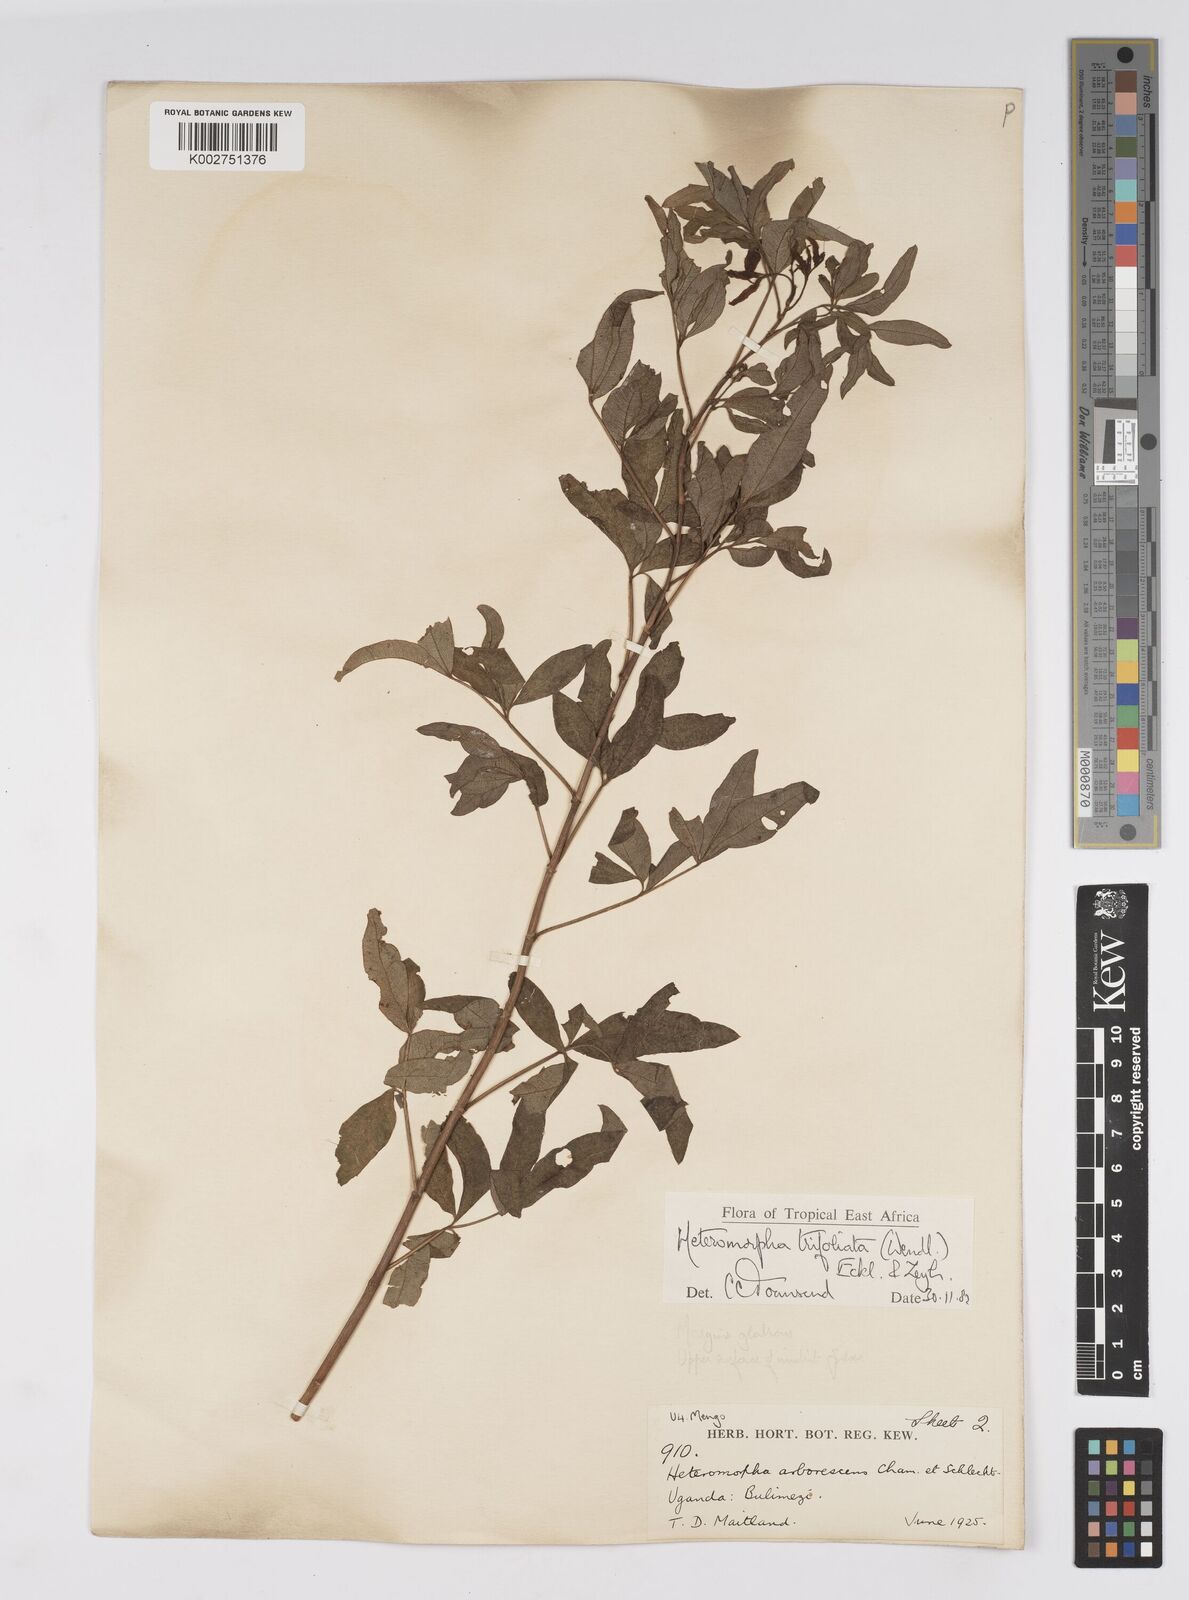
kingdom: Plantae
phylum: Tracheophyta
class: Magnoliopsida
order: Apiales
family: Apiaceae
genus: Heteromorpha
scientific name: Heteromorpha arborescens
